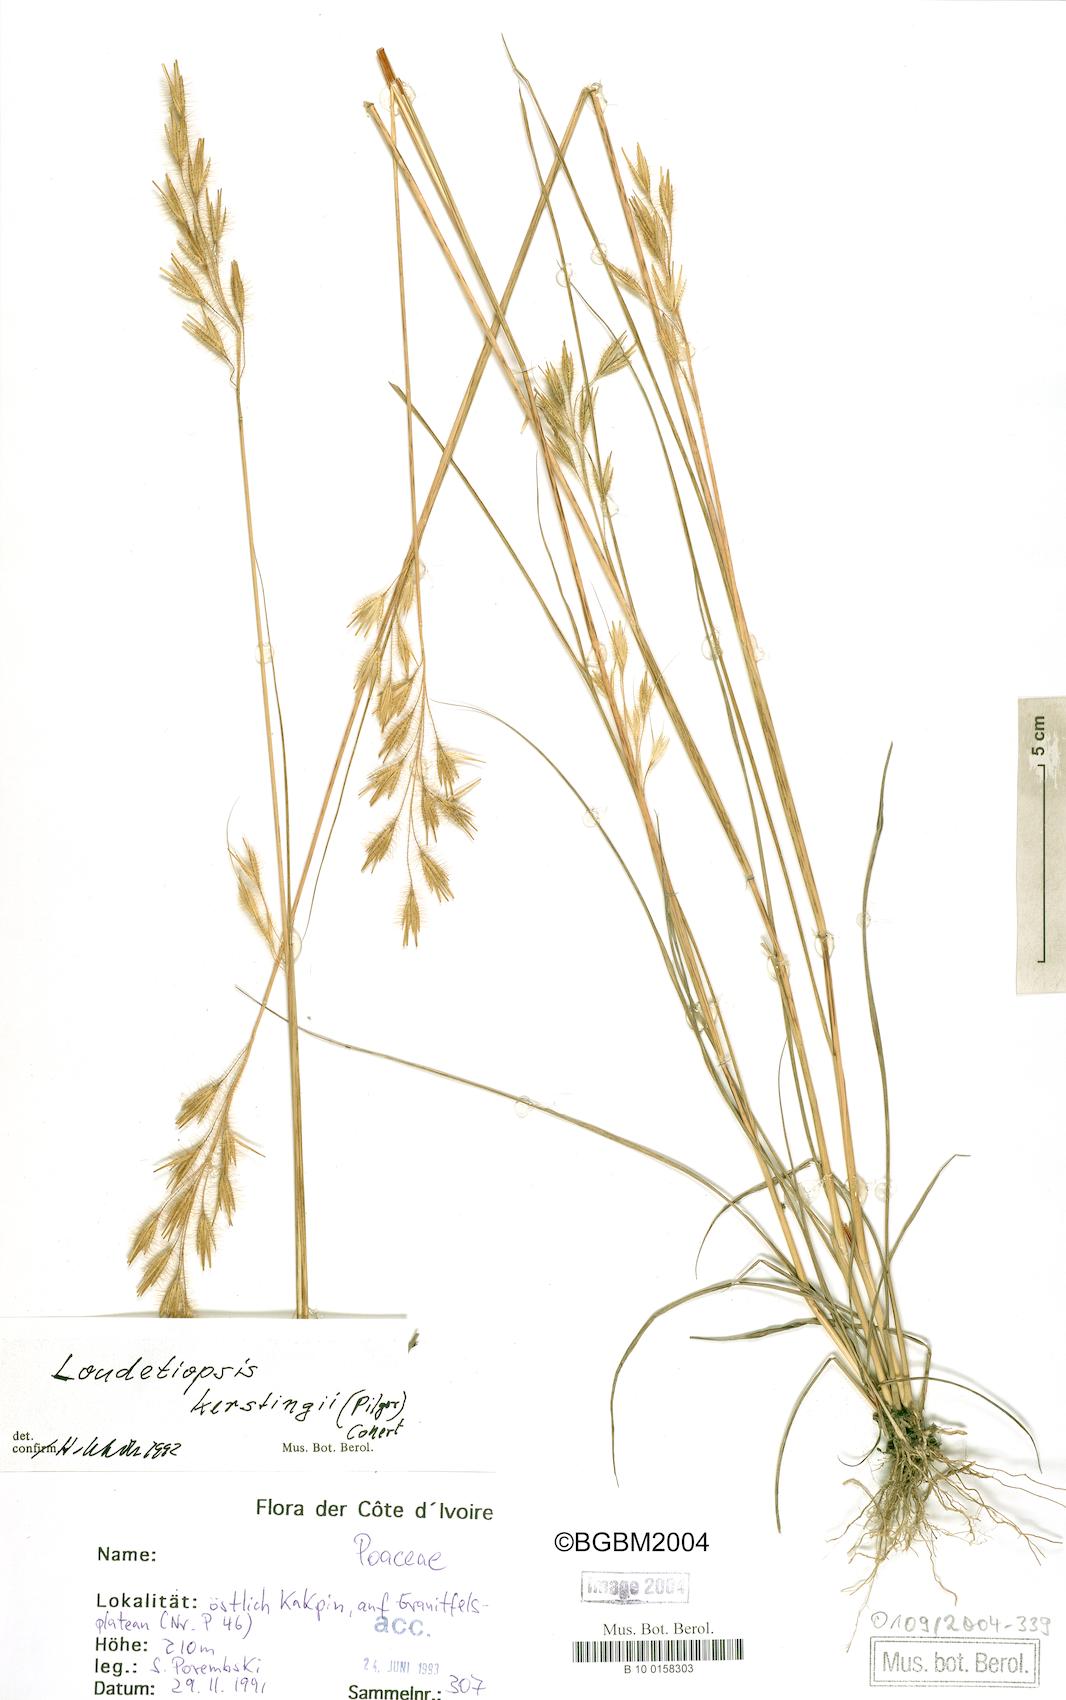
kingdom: Plantae
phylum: Tracheophyta
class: Liliopsida
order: Poales
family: Poaceae
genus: Loudetiopsis
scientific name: Loudetiopsis kerstingii
